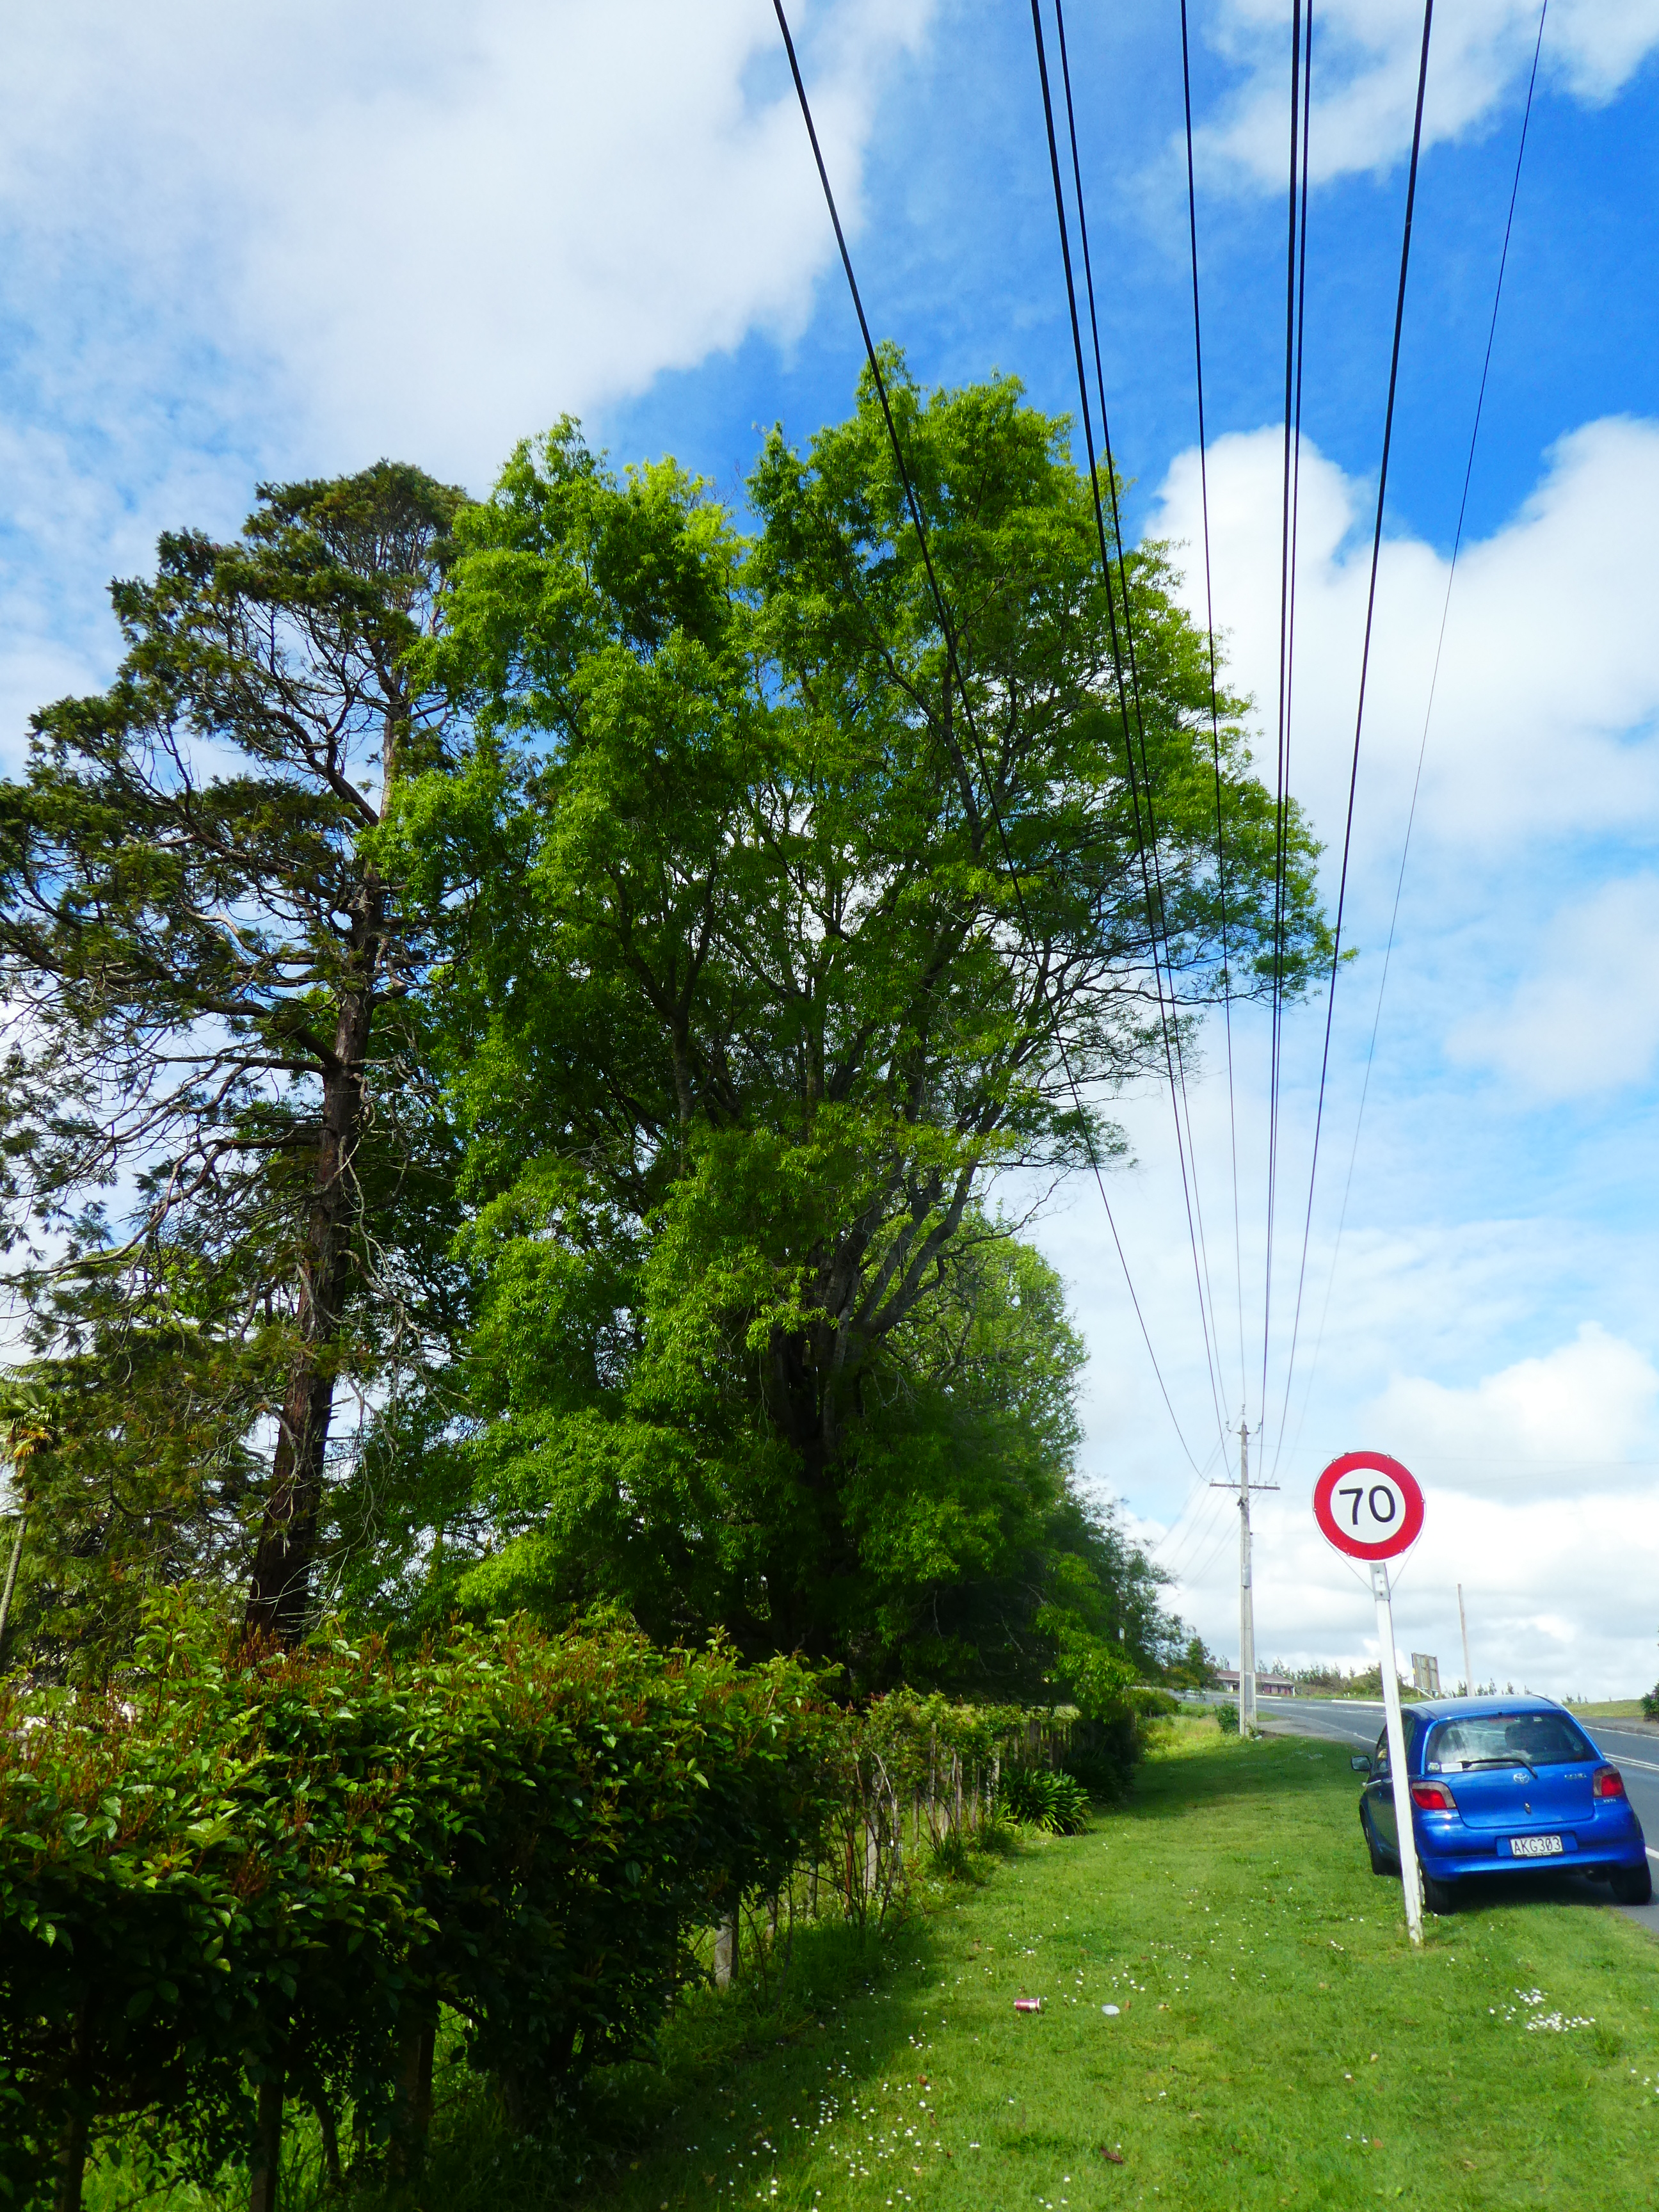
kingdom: Plantae
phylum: Tracheophyta
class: Magnoliopsida
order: Fagales
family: Fagaceae
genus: Quercus
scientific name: Quercus phellos
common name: Willow oak
